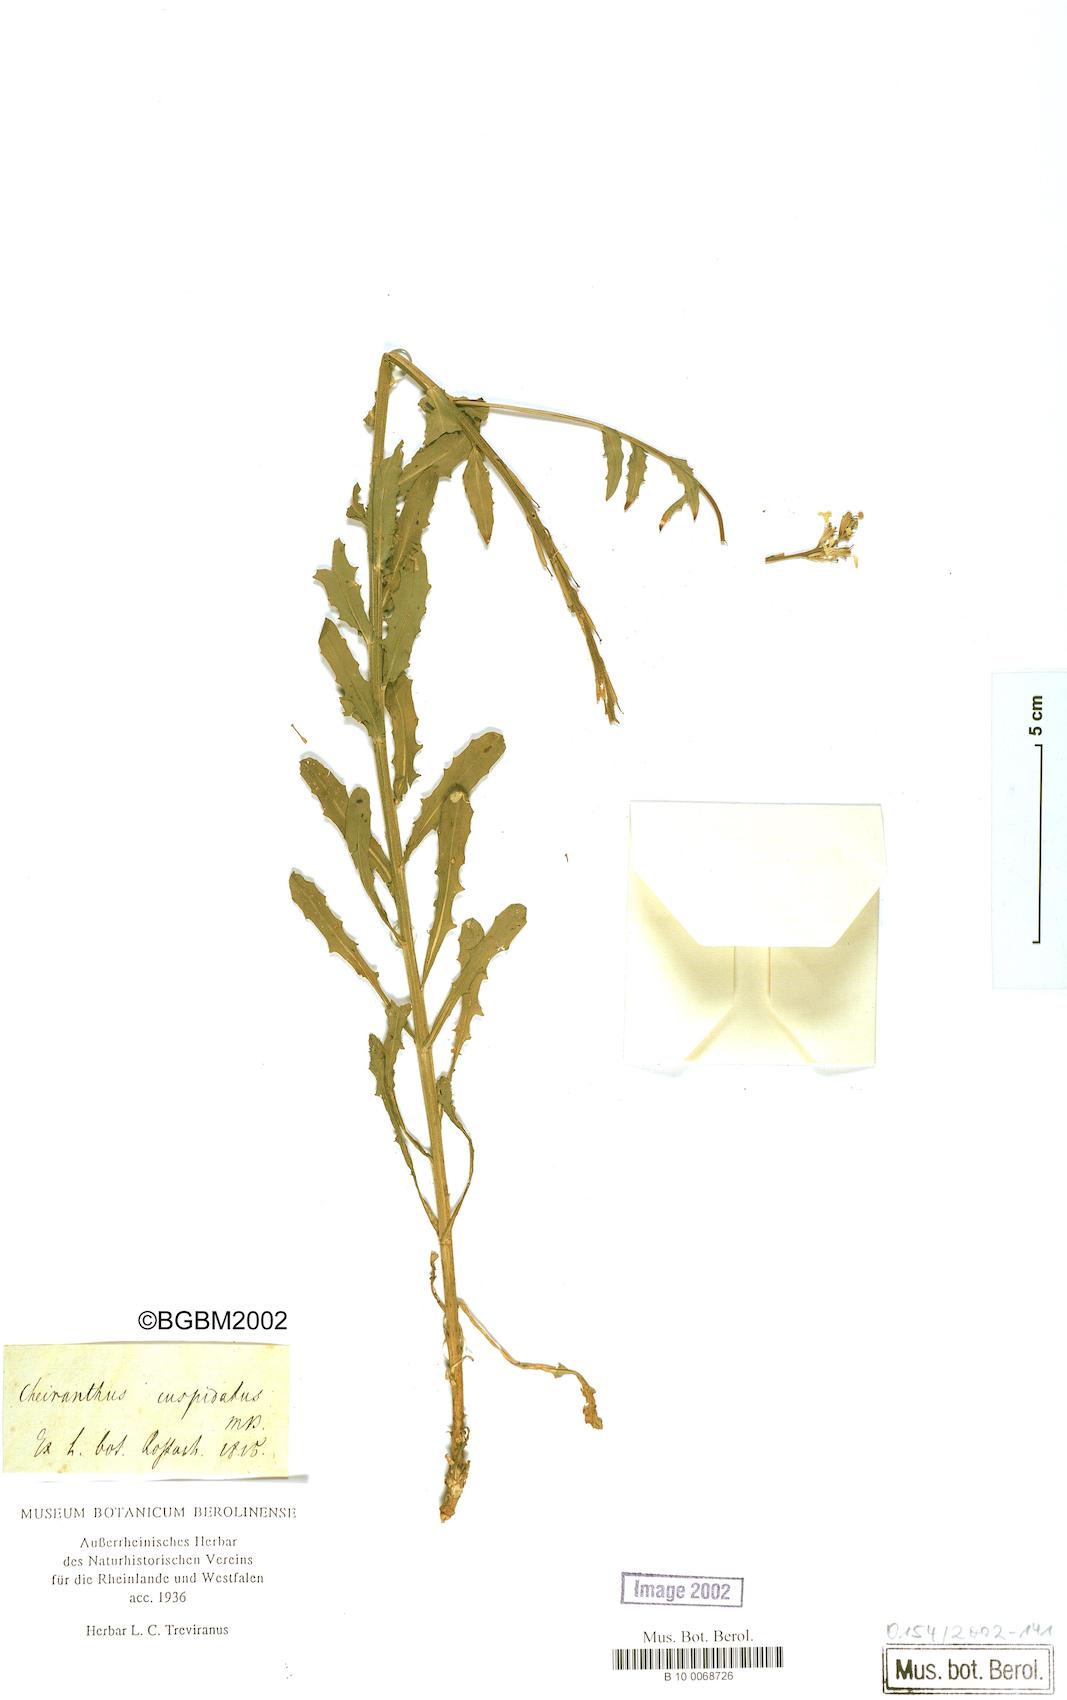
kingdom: Plantae
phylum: Tracheophyta
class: Magnoliopsida
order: Brassicales
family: Brassicaceae
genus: Erysimum
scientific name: Erysimum cuspidatum
